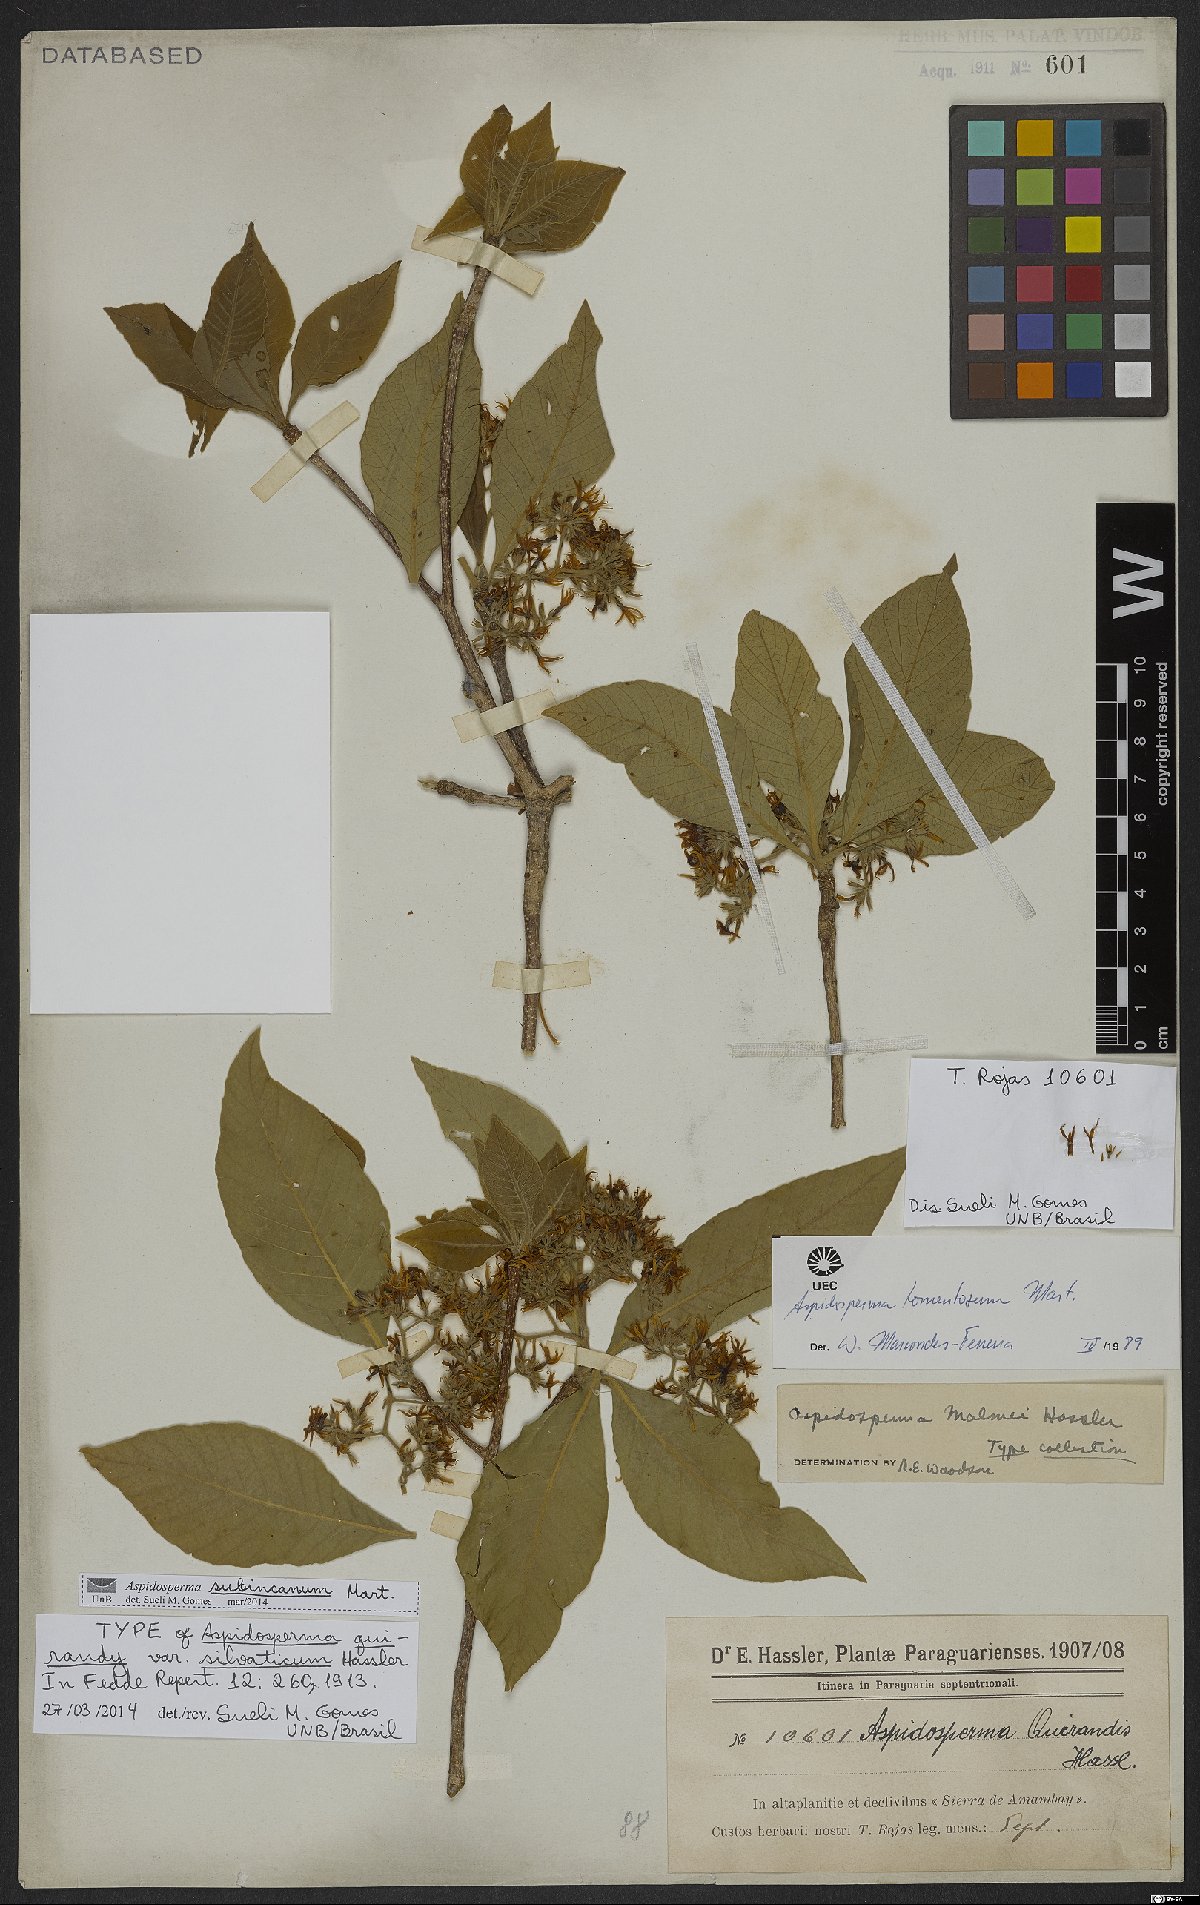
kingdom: Plantae
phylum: Tracheophyta
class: Magnoliopsida
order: Gentianales
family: Apocynaceae
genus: Aspidosperma
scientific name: Aspidosperma subincanum
